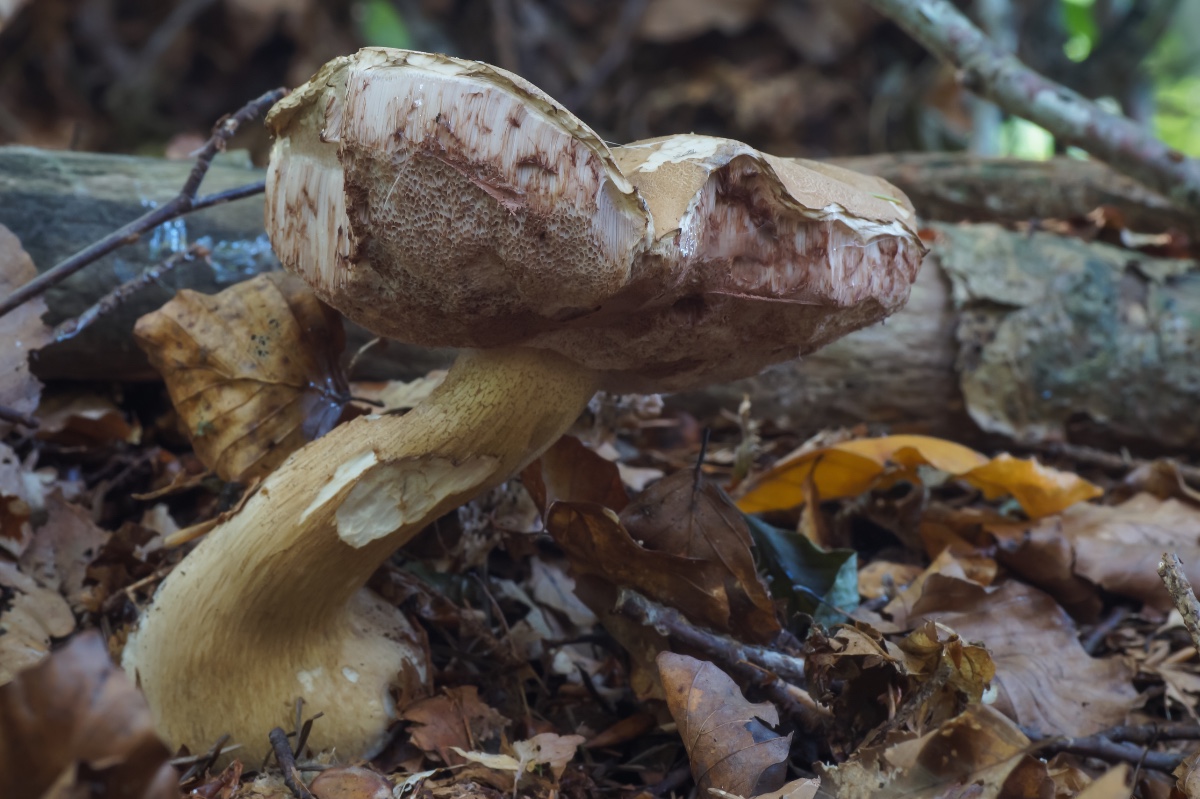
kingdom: Fungi
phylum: Basidiomycota
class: Agaricomycetes
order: Boletales
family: Boletaceae
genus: Tylopilus
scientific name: Tylopilus felleus
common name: galderørhat
